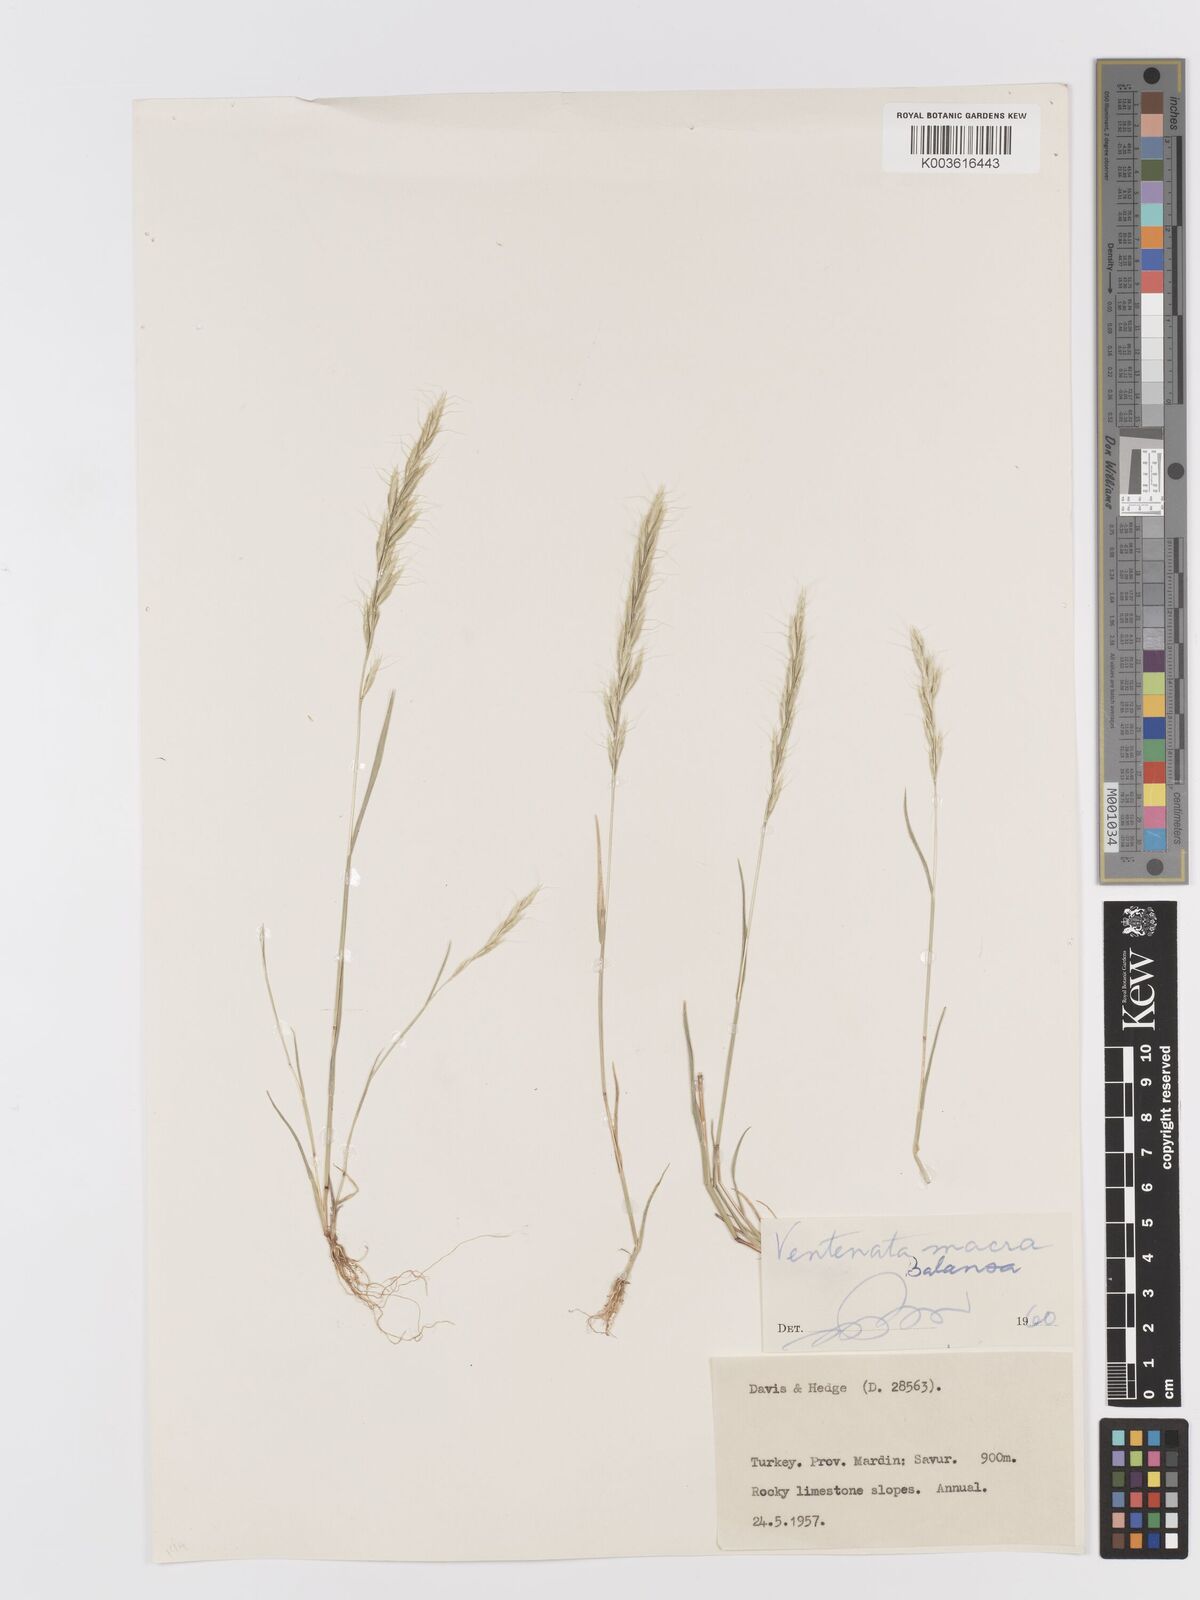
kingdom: Plantae
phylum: Tracheophyta
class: Liliopsida
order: Poales
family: Poaceae
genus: Ventenata
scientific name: Ventenata macra
